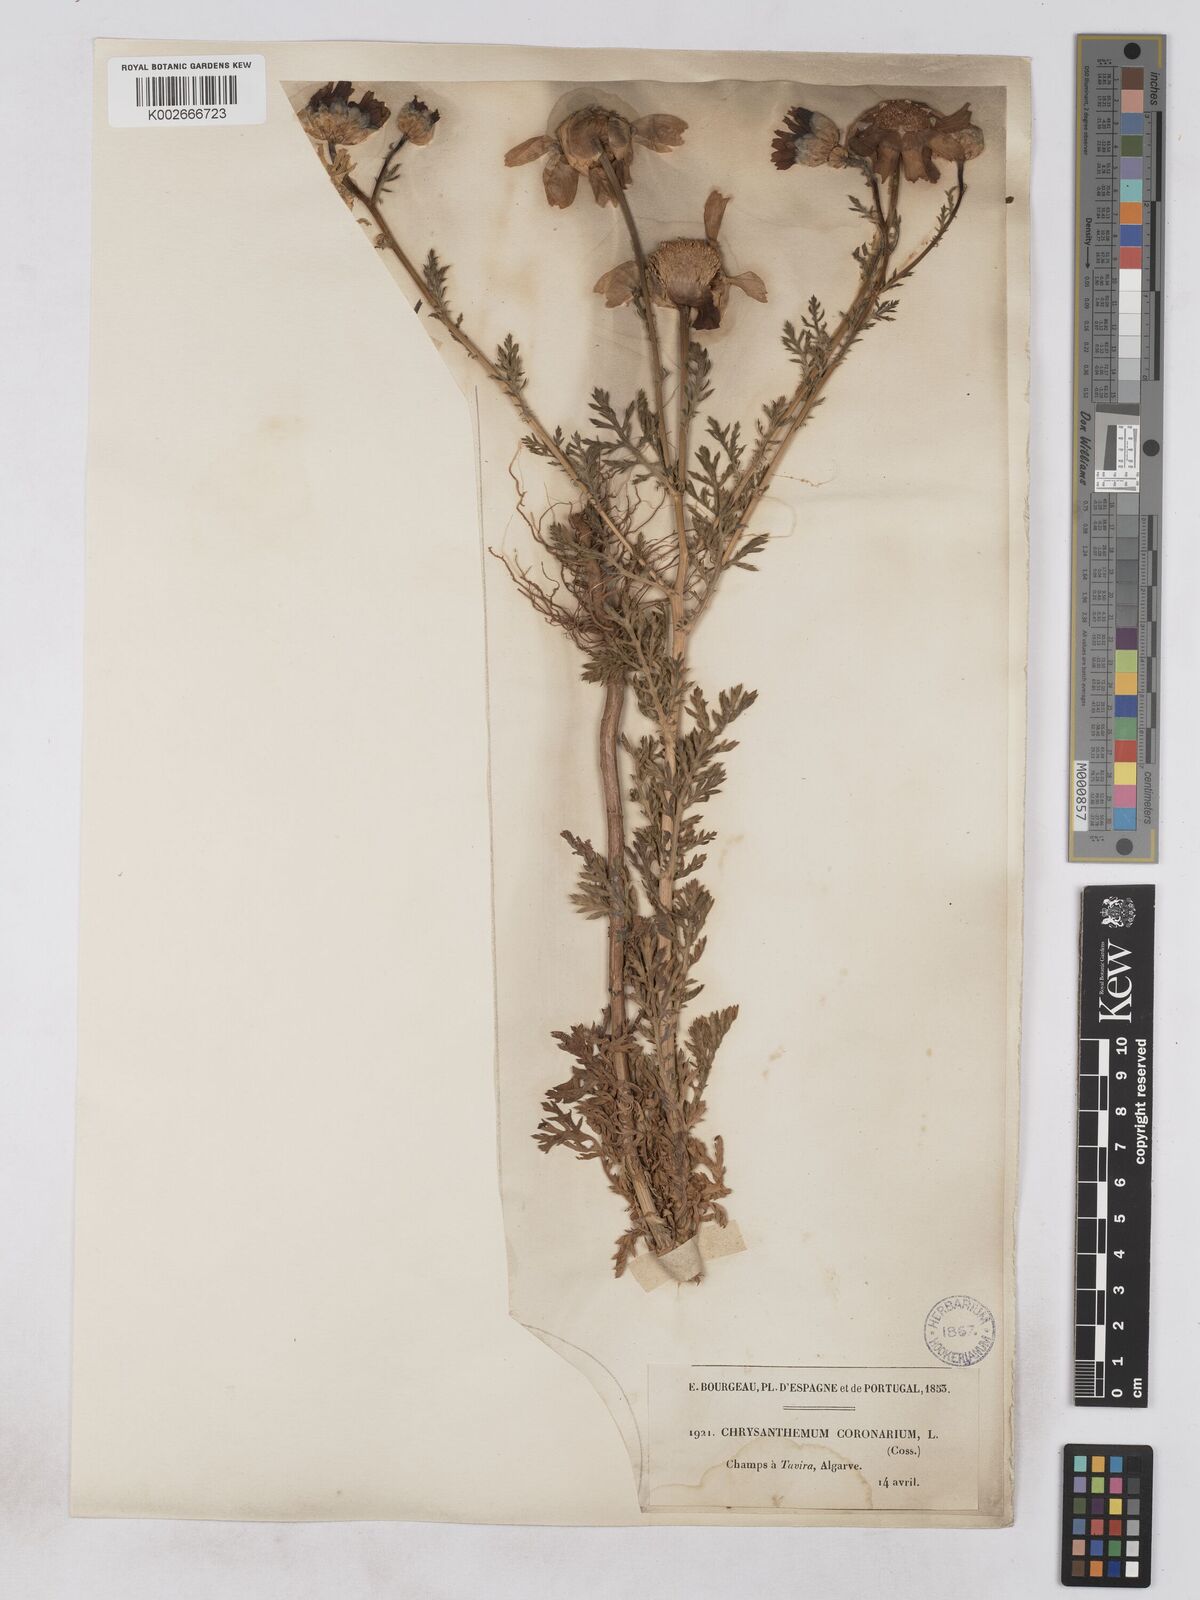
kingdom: Plantae
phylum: Tracheophyta
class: Magnoliopsida
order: Asterales
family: Asteraceae
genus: Glebionis
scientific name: Glebionis coronaria
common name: Crowndaisy
